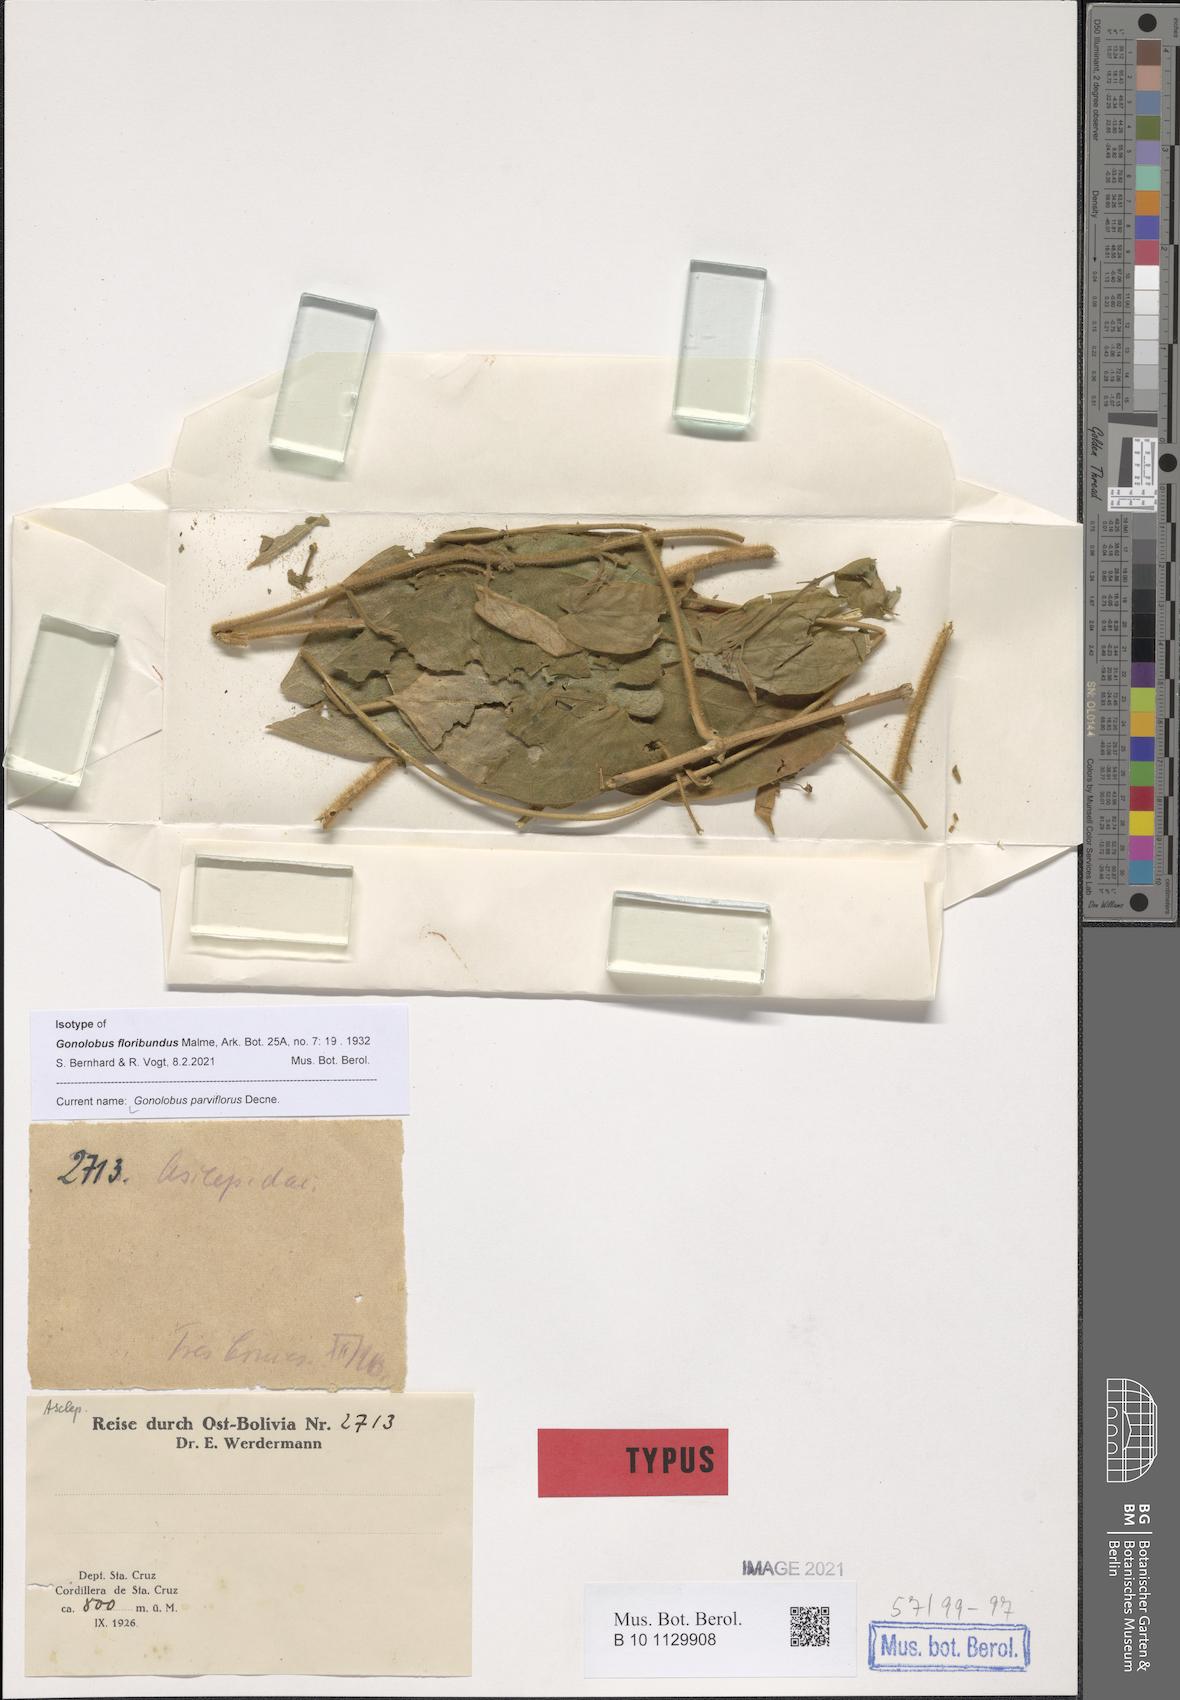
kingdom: Plantae
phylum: Tracheophyta
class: Magnoliopsida
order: Gentianales
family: Apocynaceae
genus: Gonolobus
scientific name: Gonolobus parviflorus
